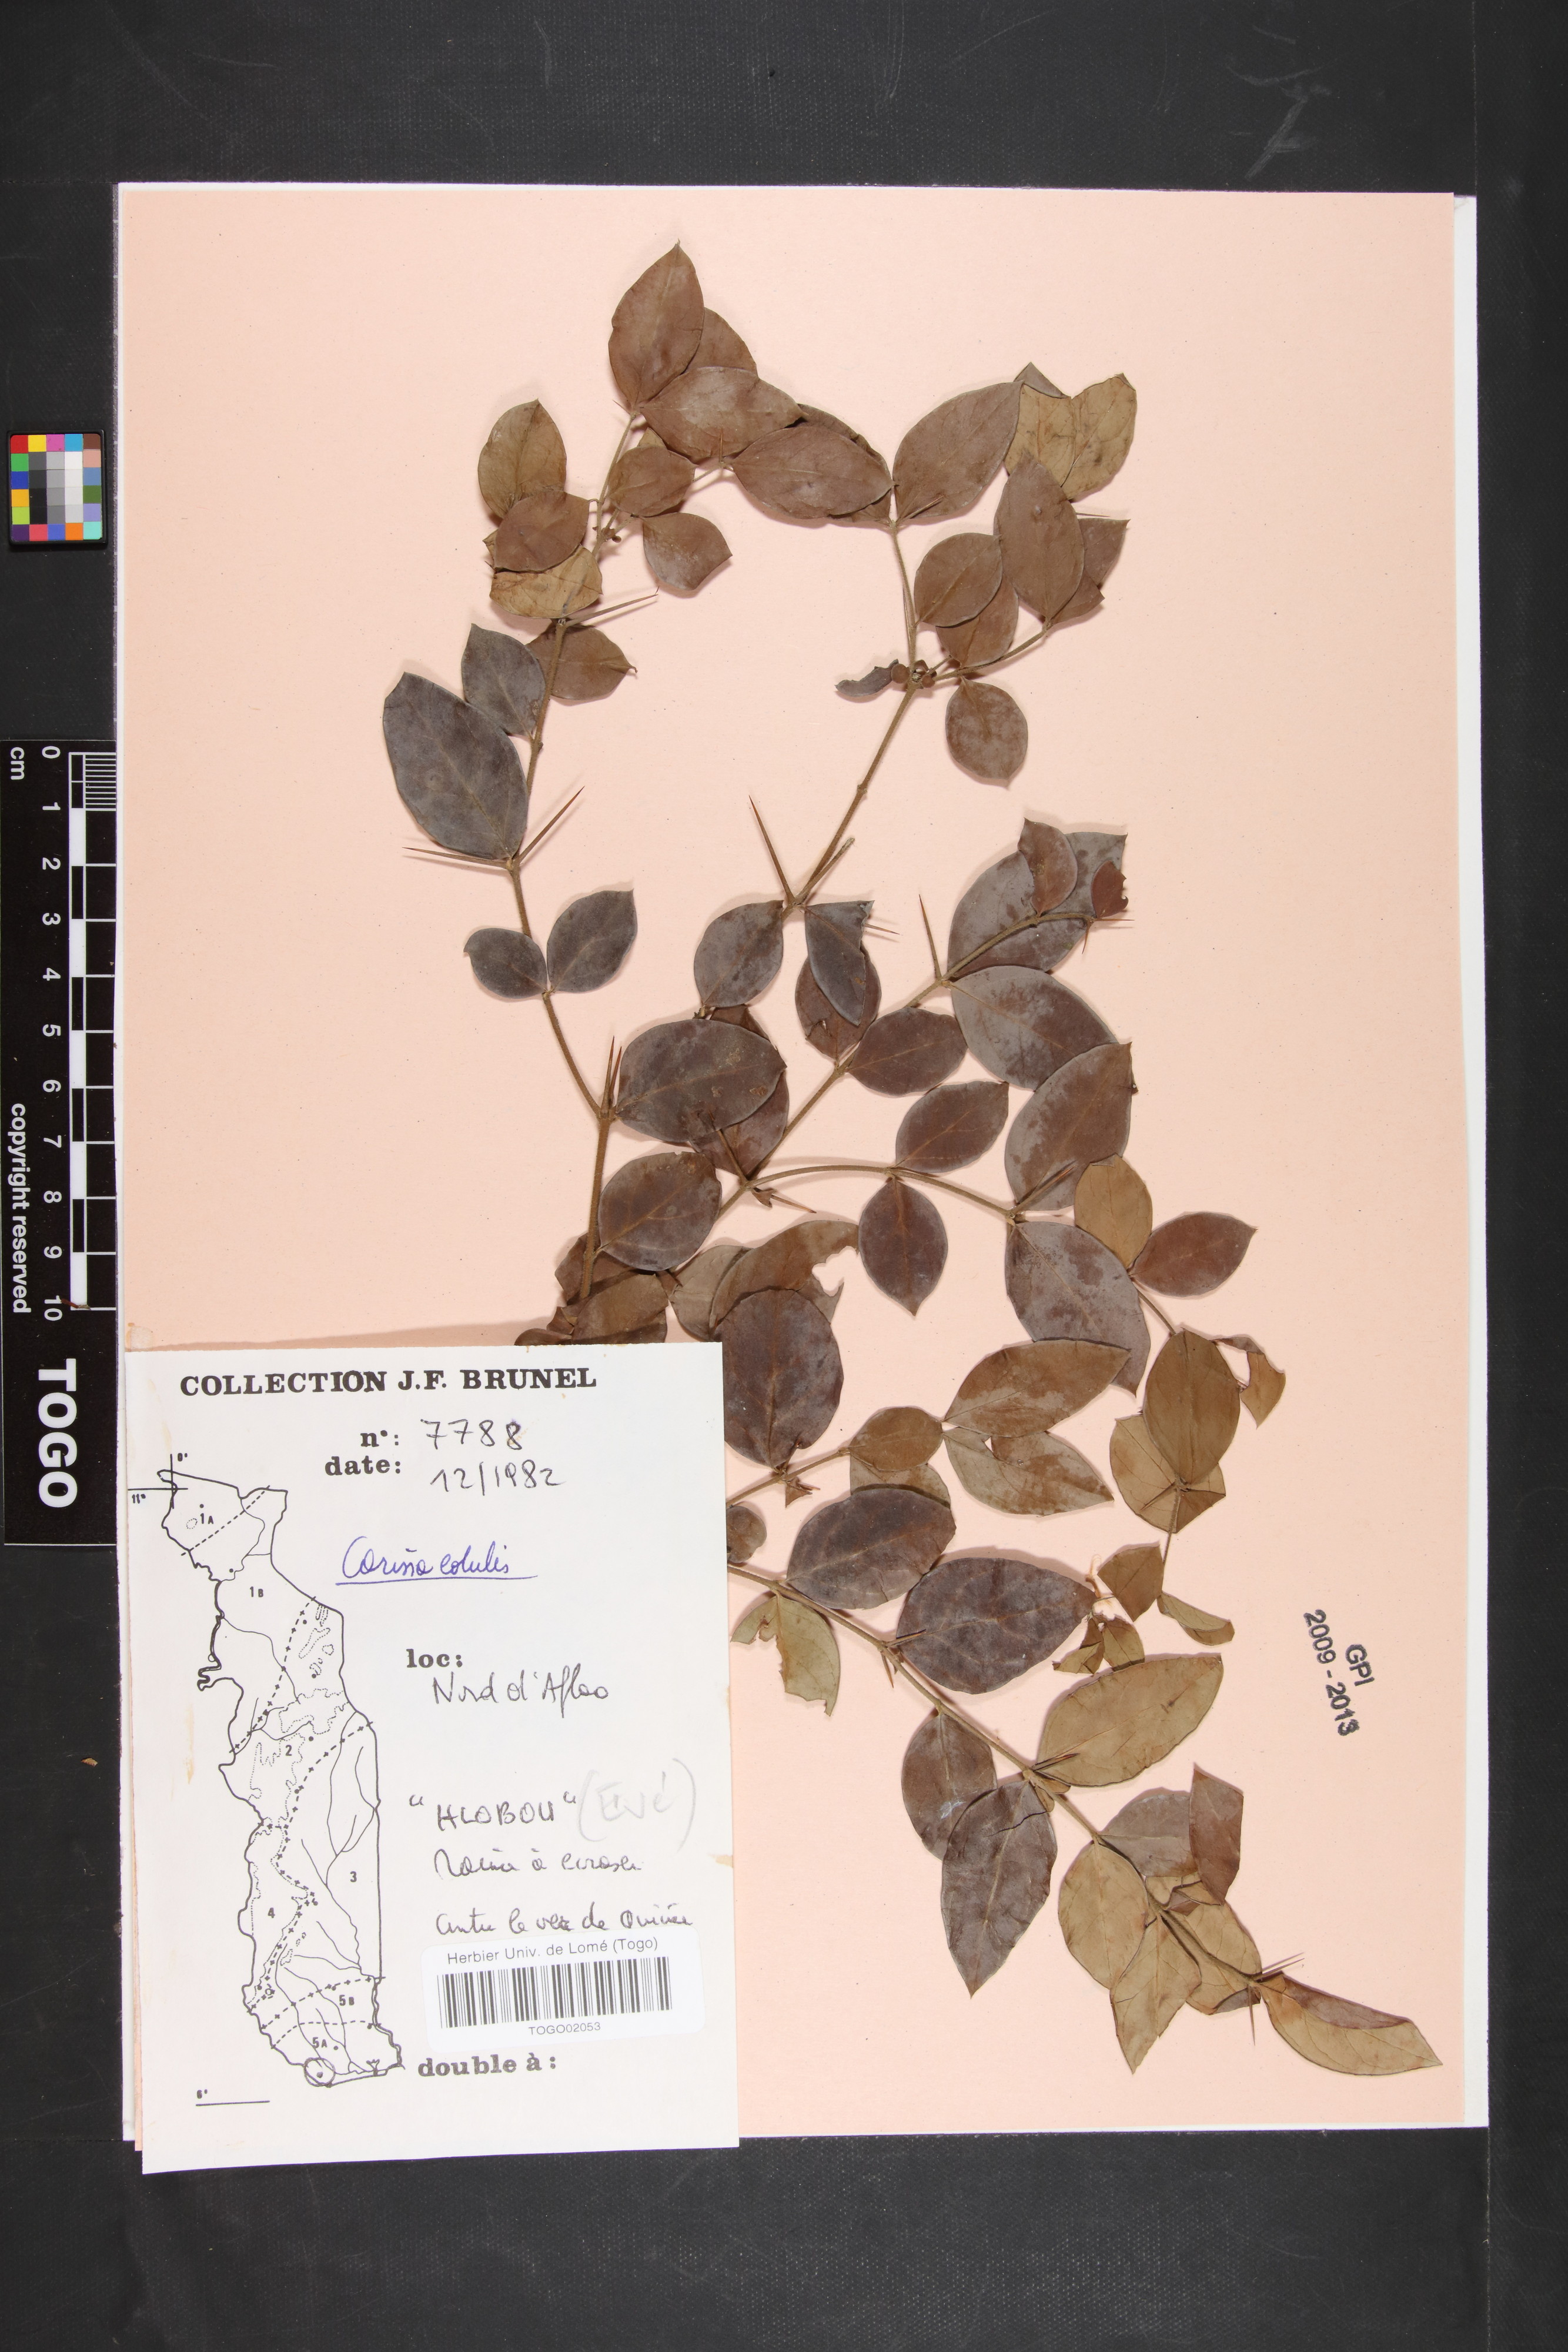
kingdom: Plantae
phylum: Tracheophyta
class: Magnoliopsida
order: Gentianales
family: Apocynaceae
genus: Carissa
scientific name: Carissa spinarum
